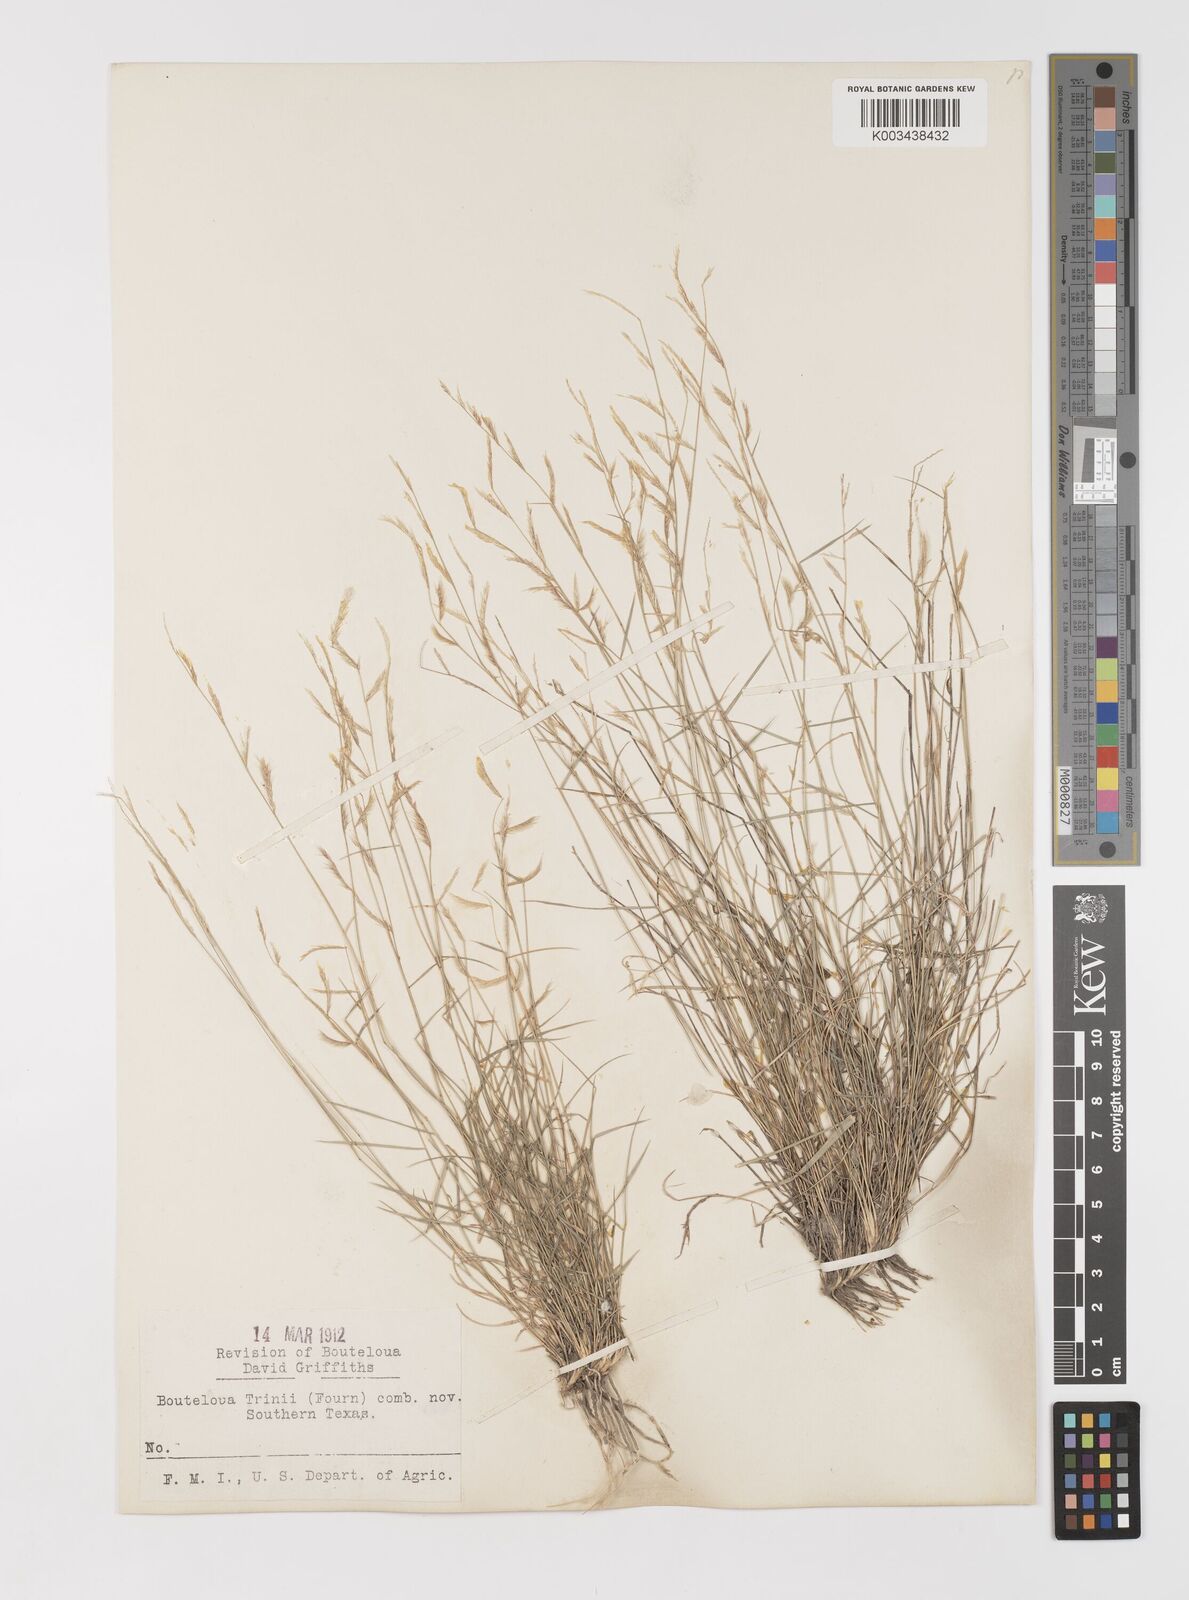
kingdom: Plantae
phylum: Tracheophyta
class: Liliopsida
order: Poales
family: Poaceae
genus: Bouteloua
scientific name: Bouteloua trifida
